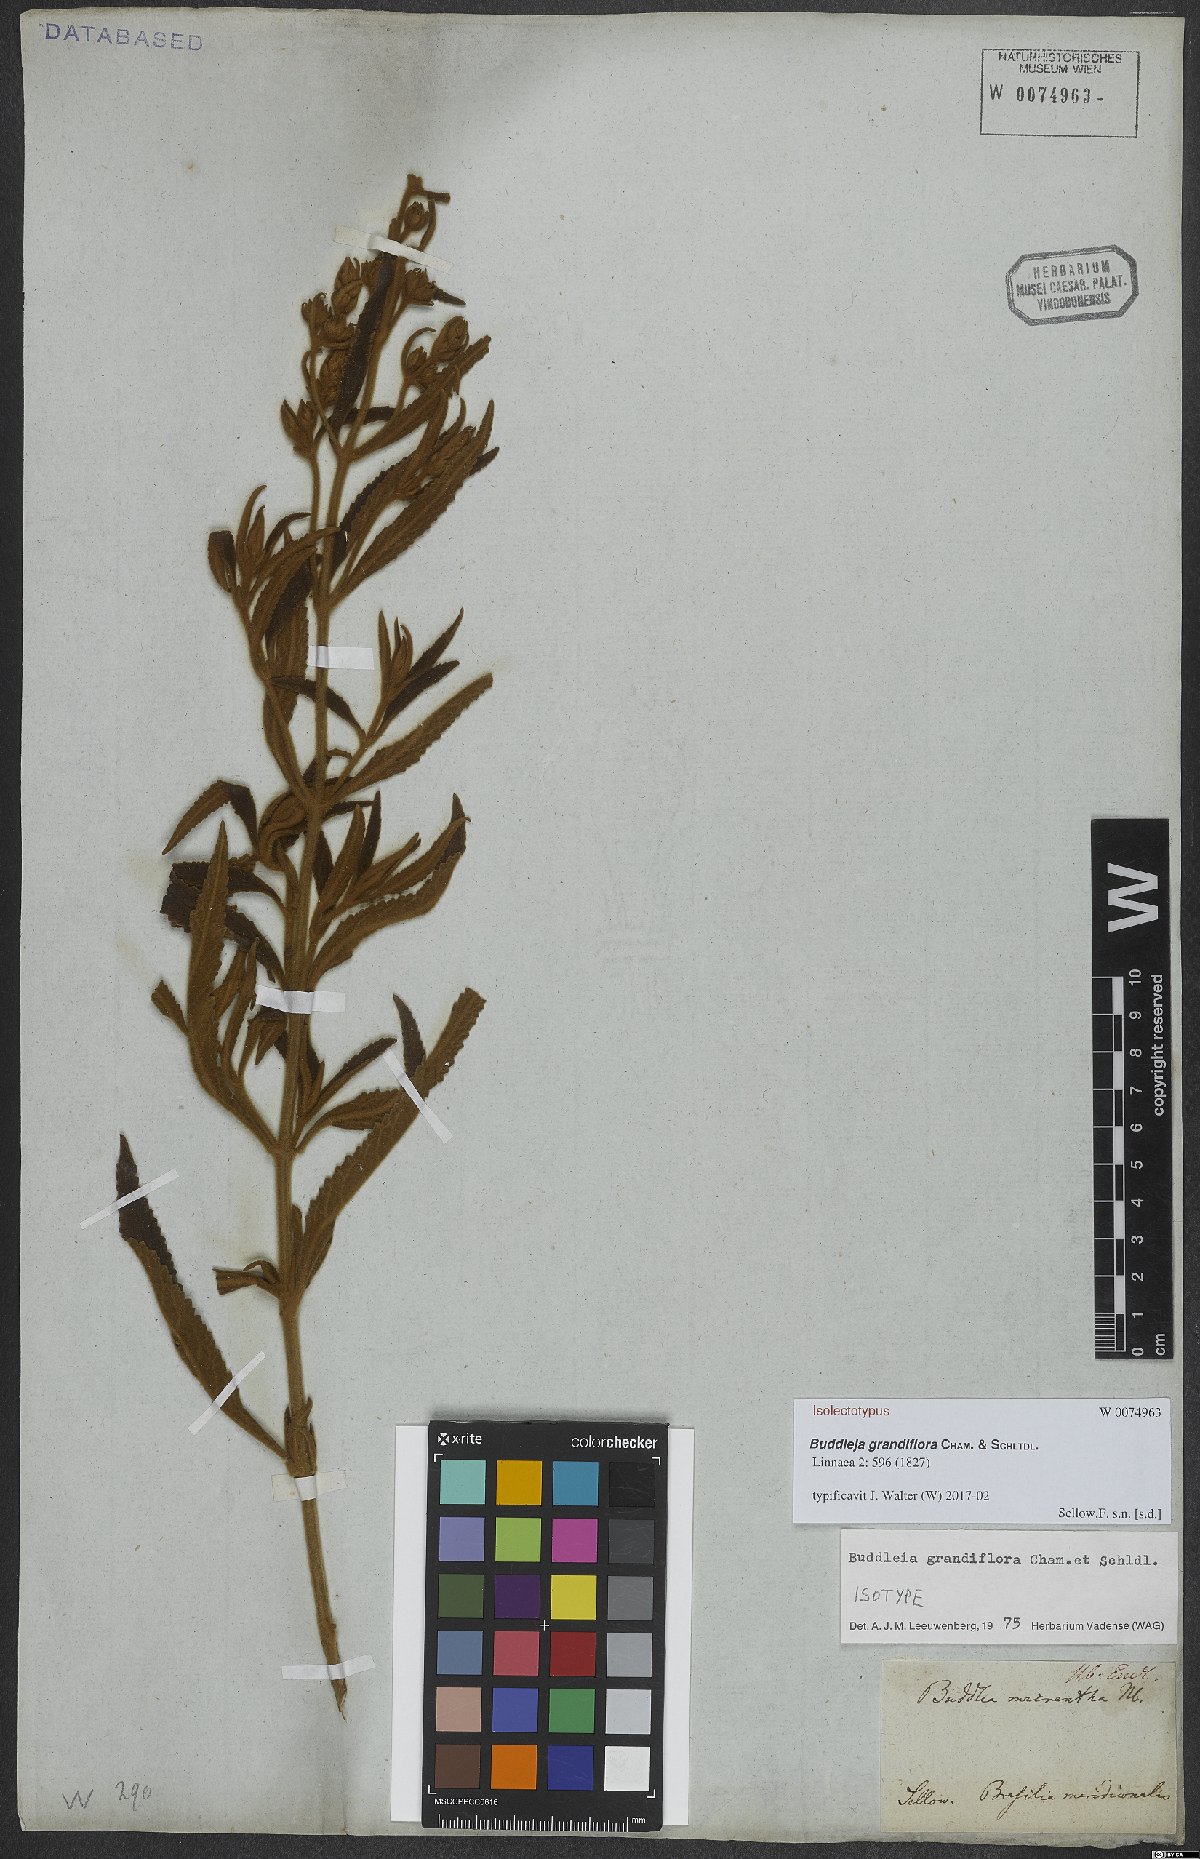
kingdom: Plantae
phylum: Tracheophyta
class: Magnoliopsida
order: Lamiales
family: Scrophulariaceae
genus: Buddleja
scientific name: Buddleja grandiflora
